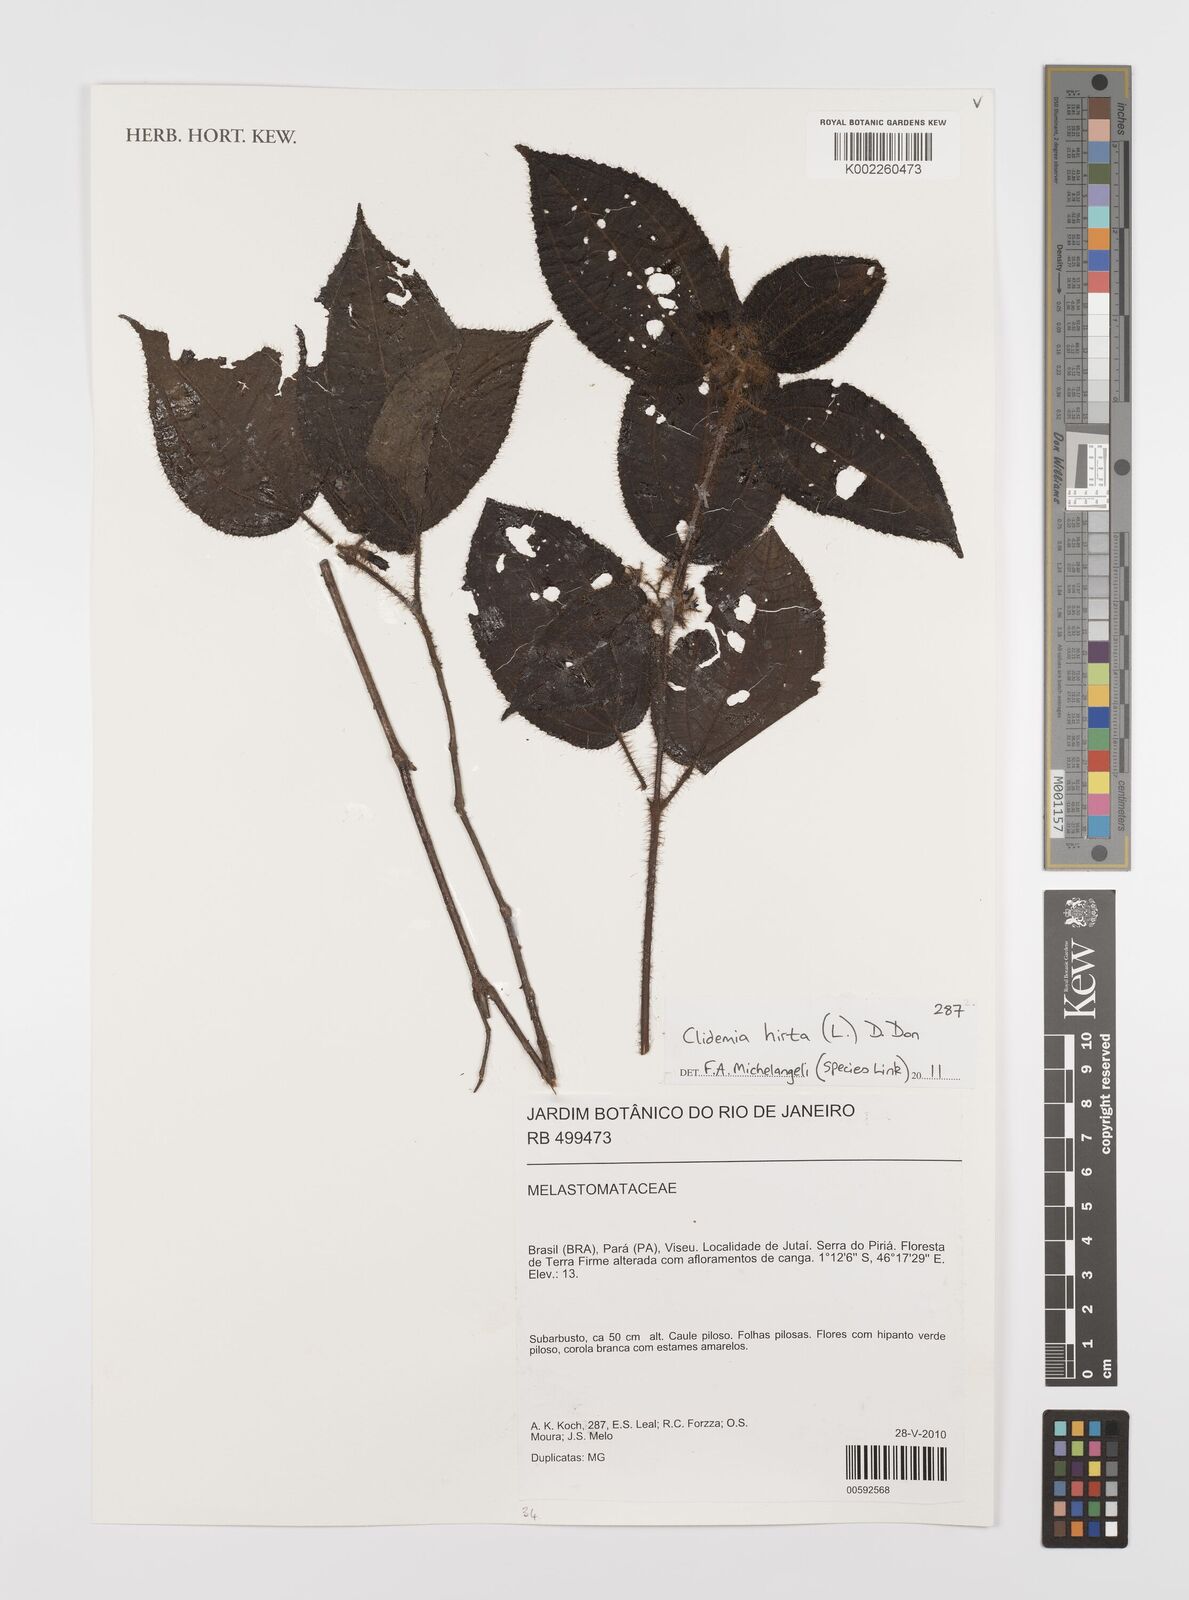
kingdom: Plantae
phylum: Tracheophyta
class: Magnoliopsida
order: Myrtales
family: Melastomataceae
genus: Miconia
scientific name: Miconia crenata
